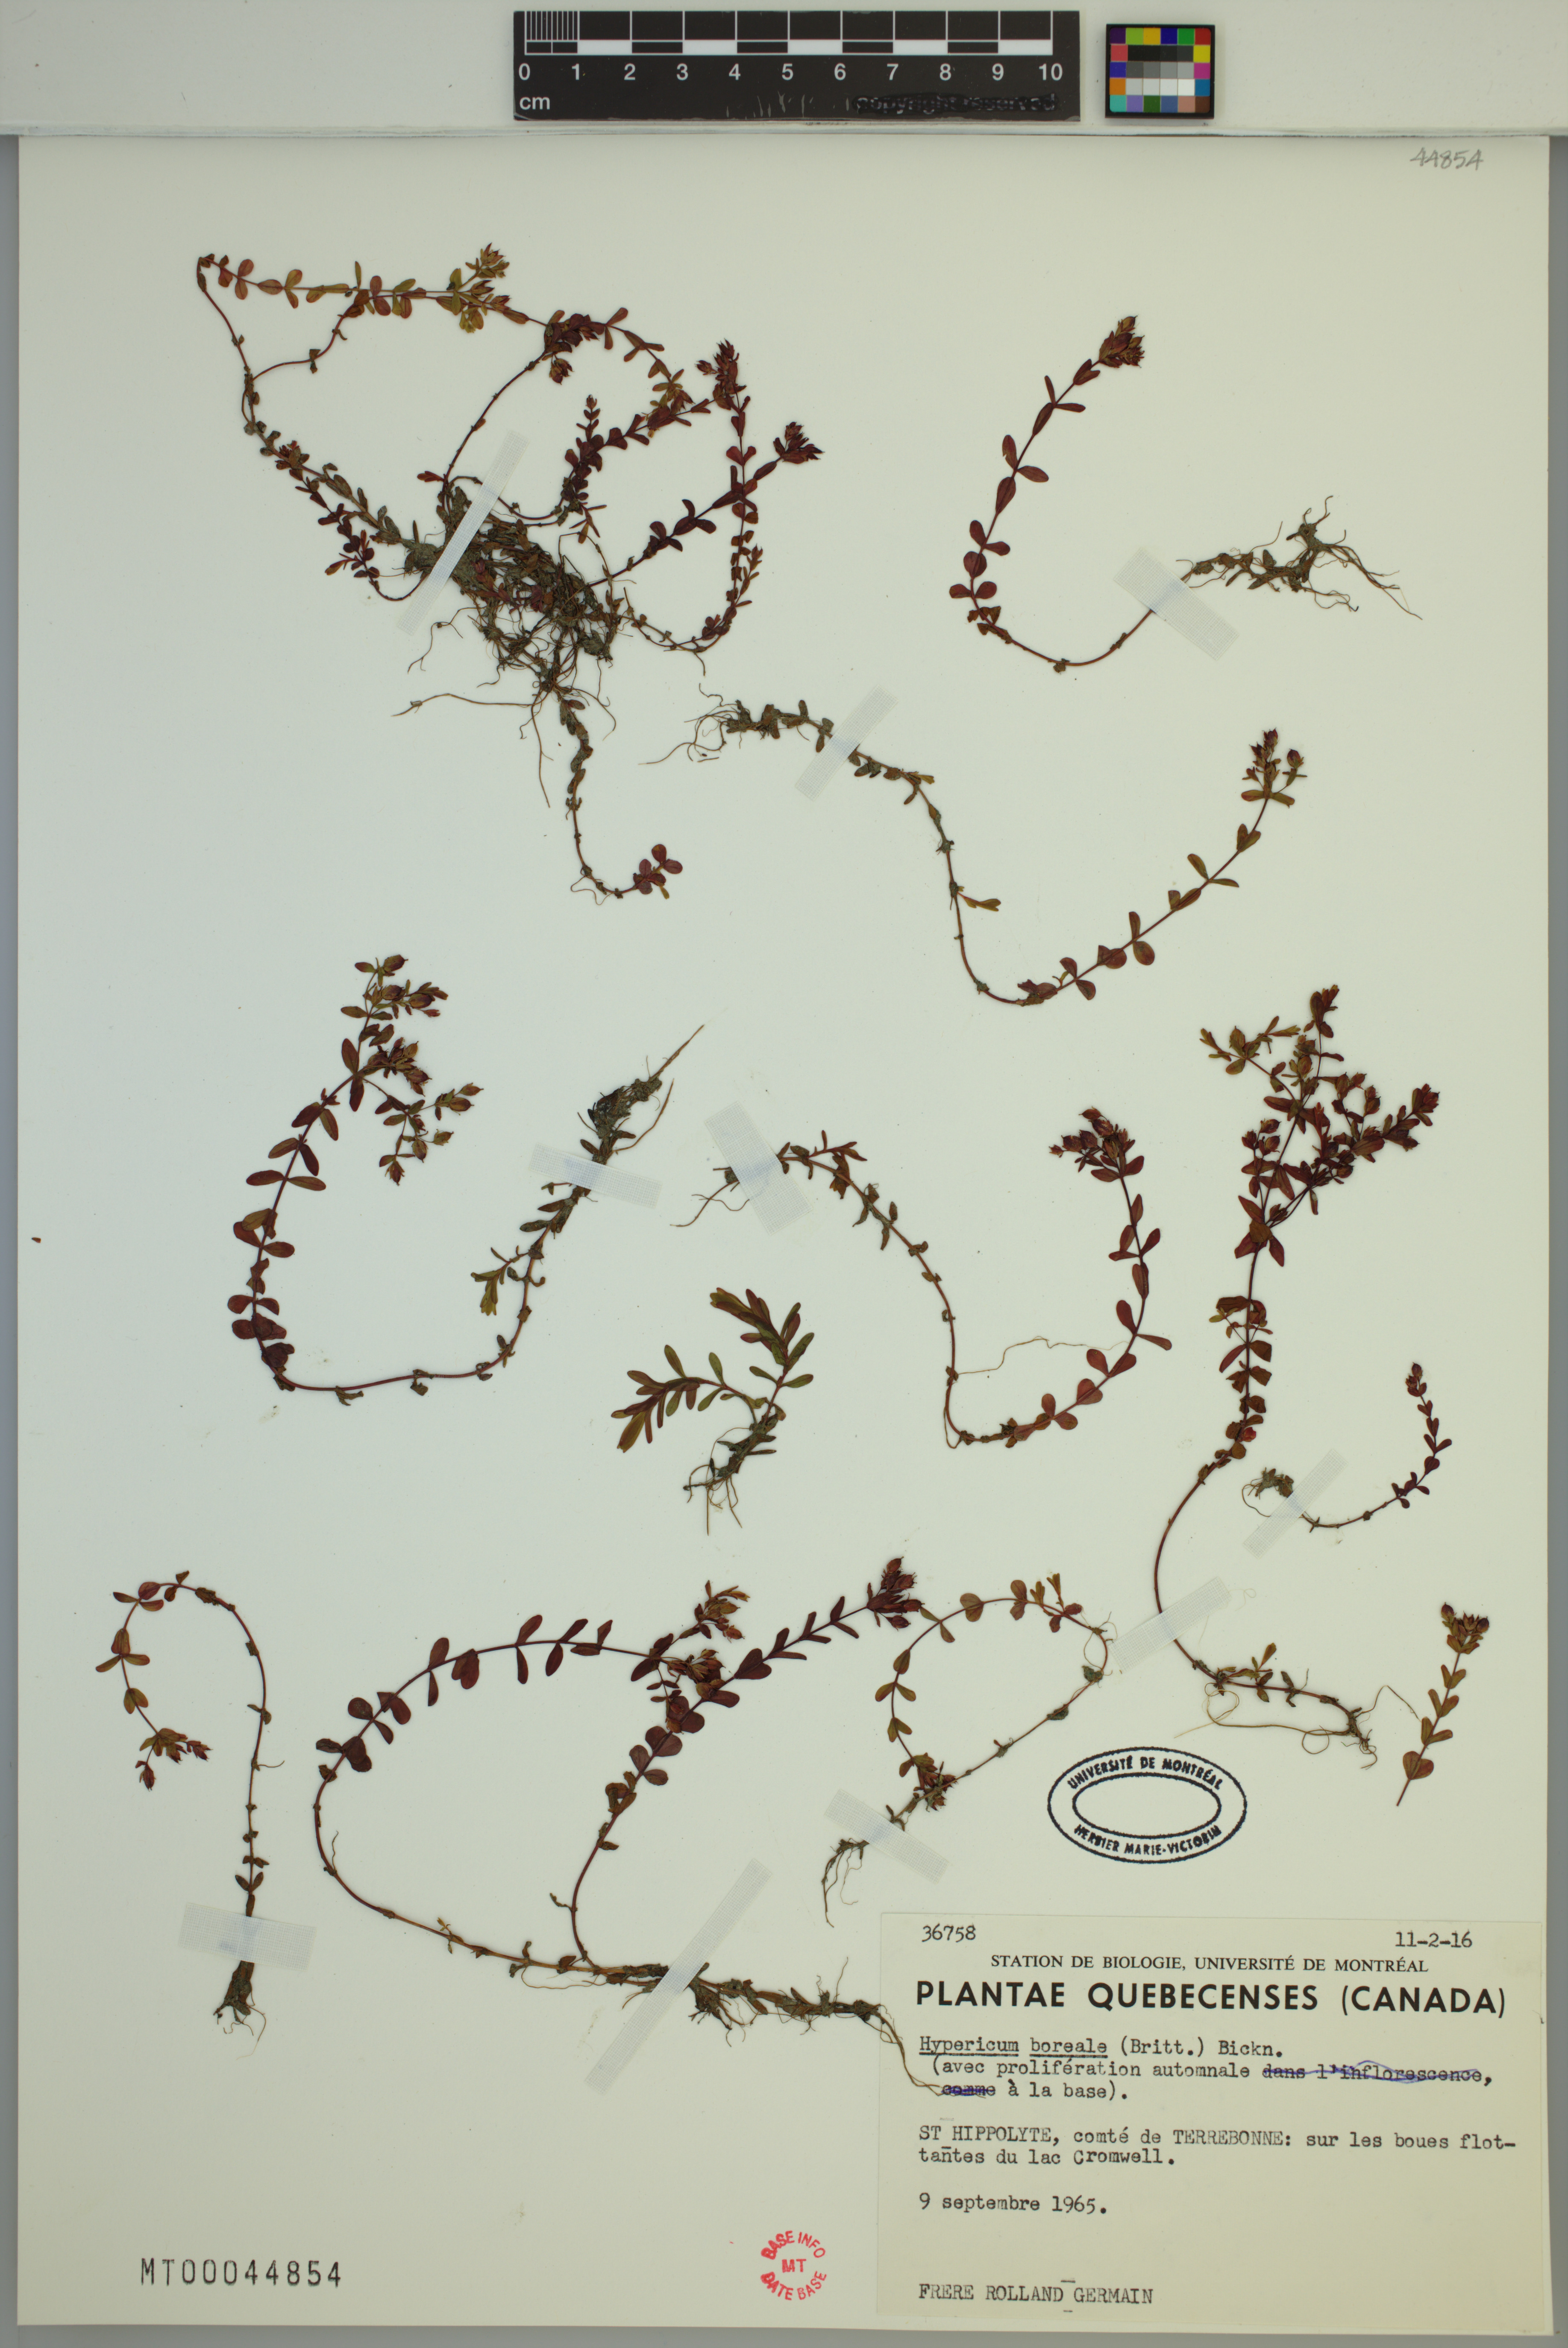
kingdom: Plantae
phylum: Tracheophyta
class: Magnoliopsida
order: Malpighiales
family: Hypericaceae
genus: Hypericum
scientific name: Hypericum boreale
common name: Northern bog st. john's-wort
